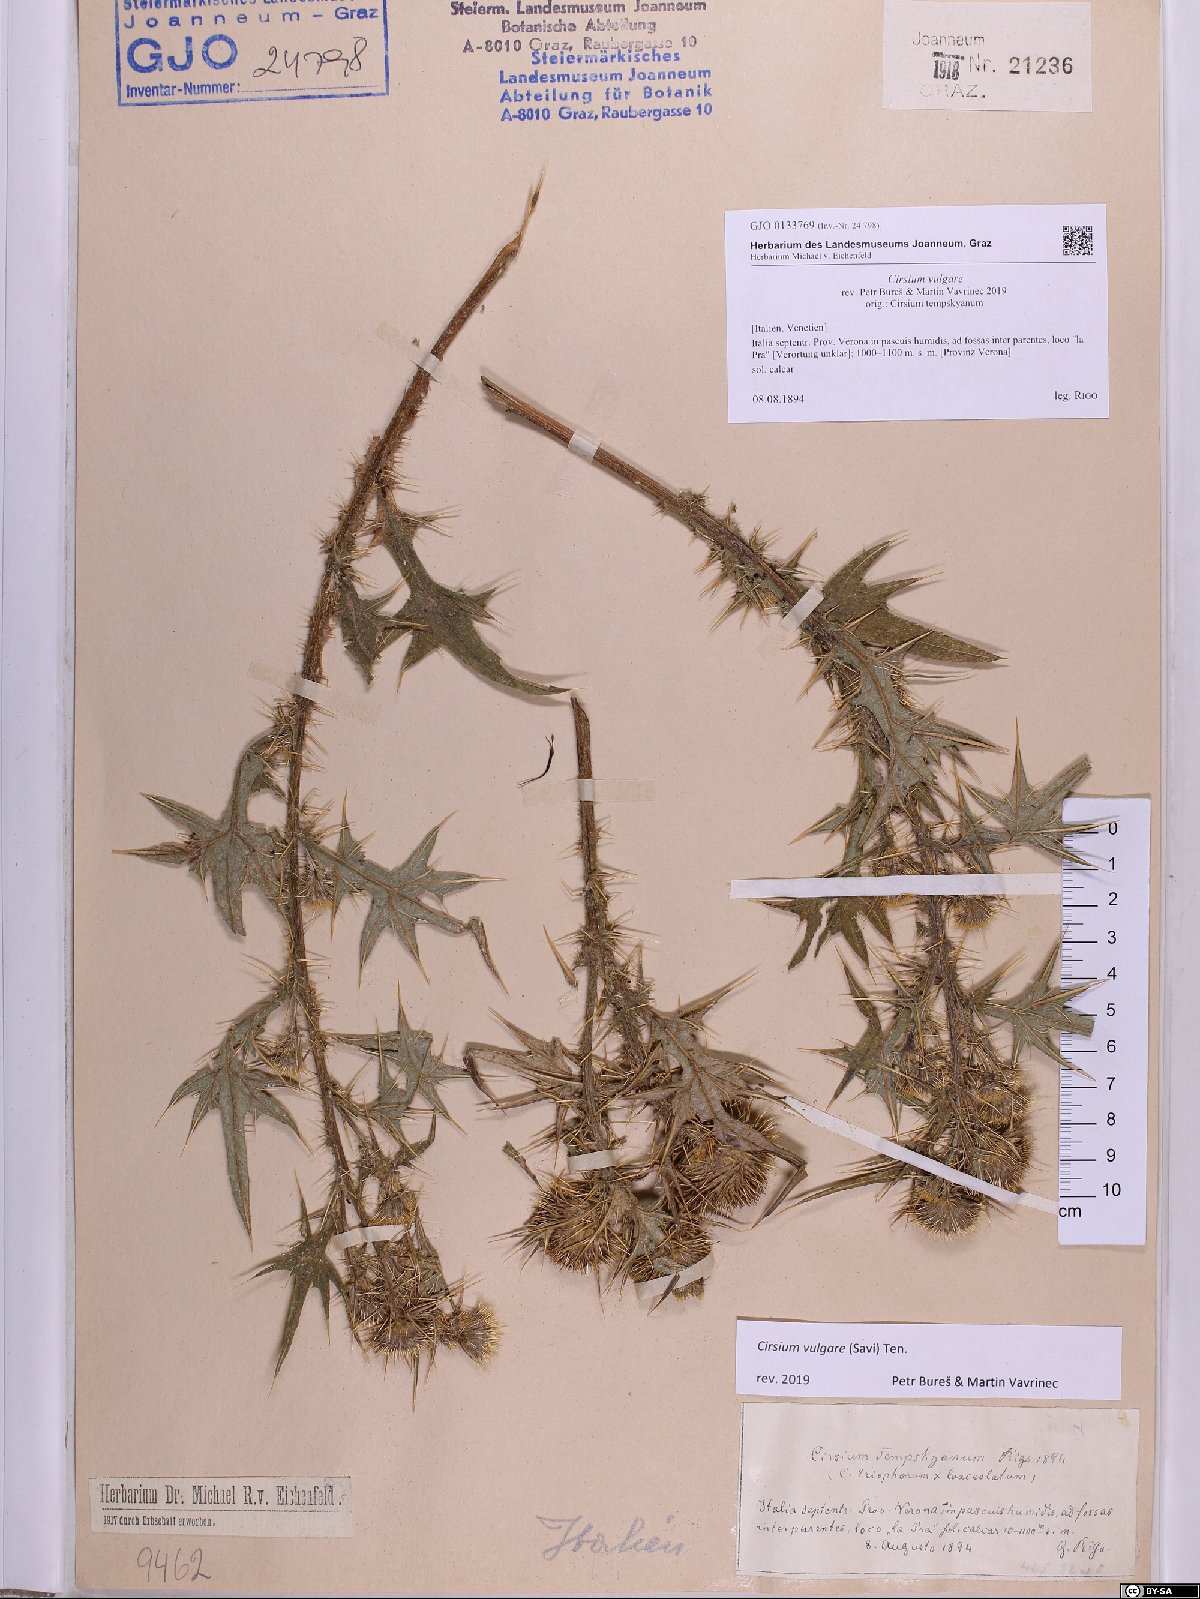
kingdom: Plantae
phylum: Tracheophyta
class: Magnoliopsida
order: Asterales
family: Asteraceae
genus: Cirsium
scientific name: Cirsium vulgare
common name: Bull thistle
